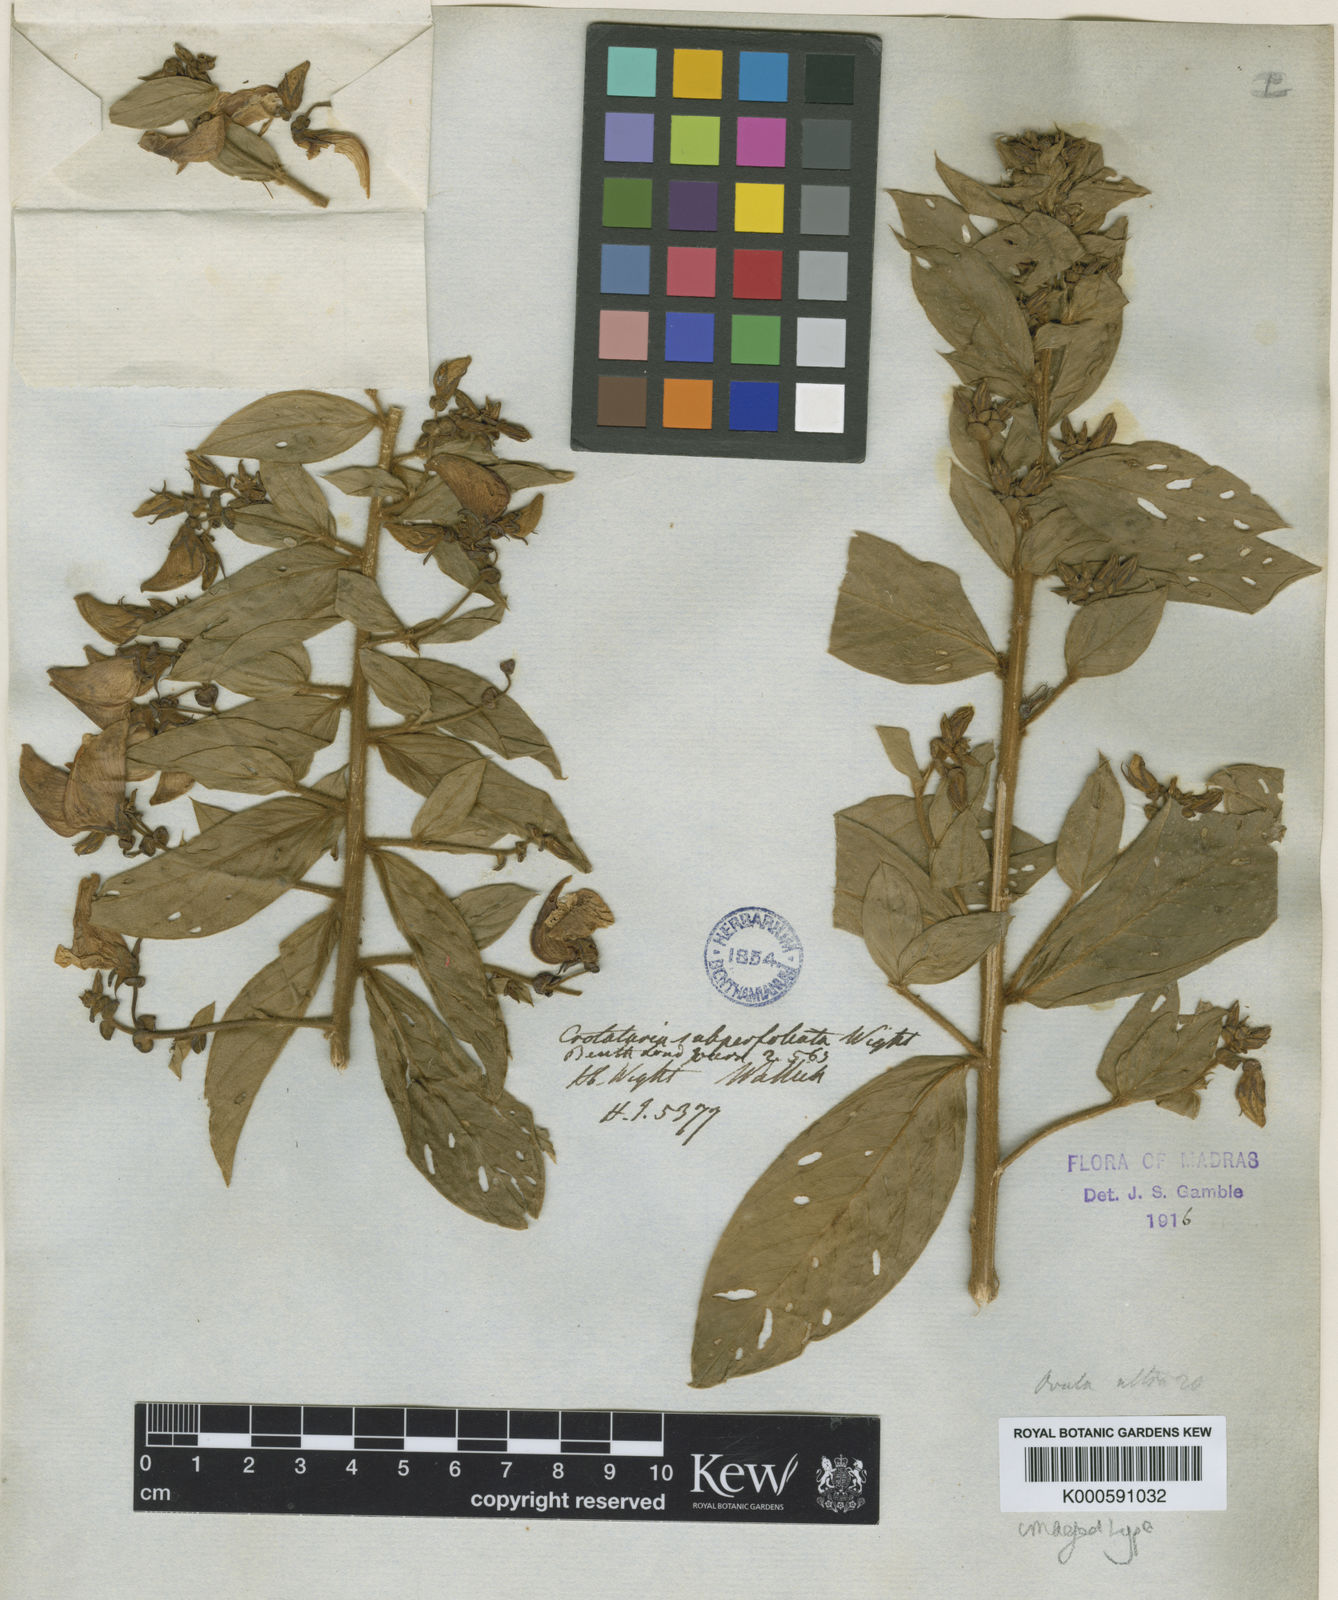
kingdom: Plantae
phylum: Tracheophyta
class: Magnoliopsida
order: Fabales
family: Fabaceae
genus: Crotalaria
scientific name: Crotalaria
